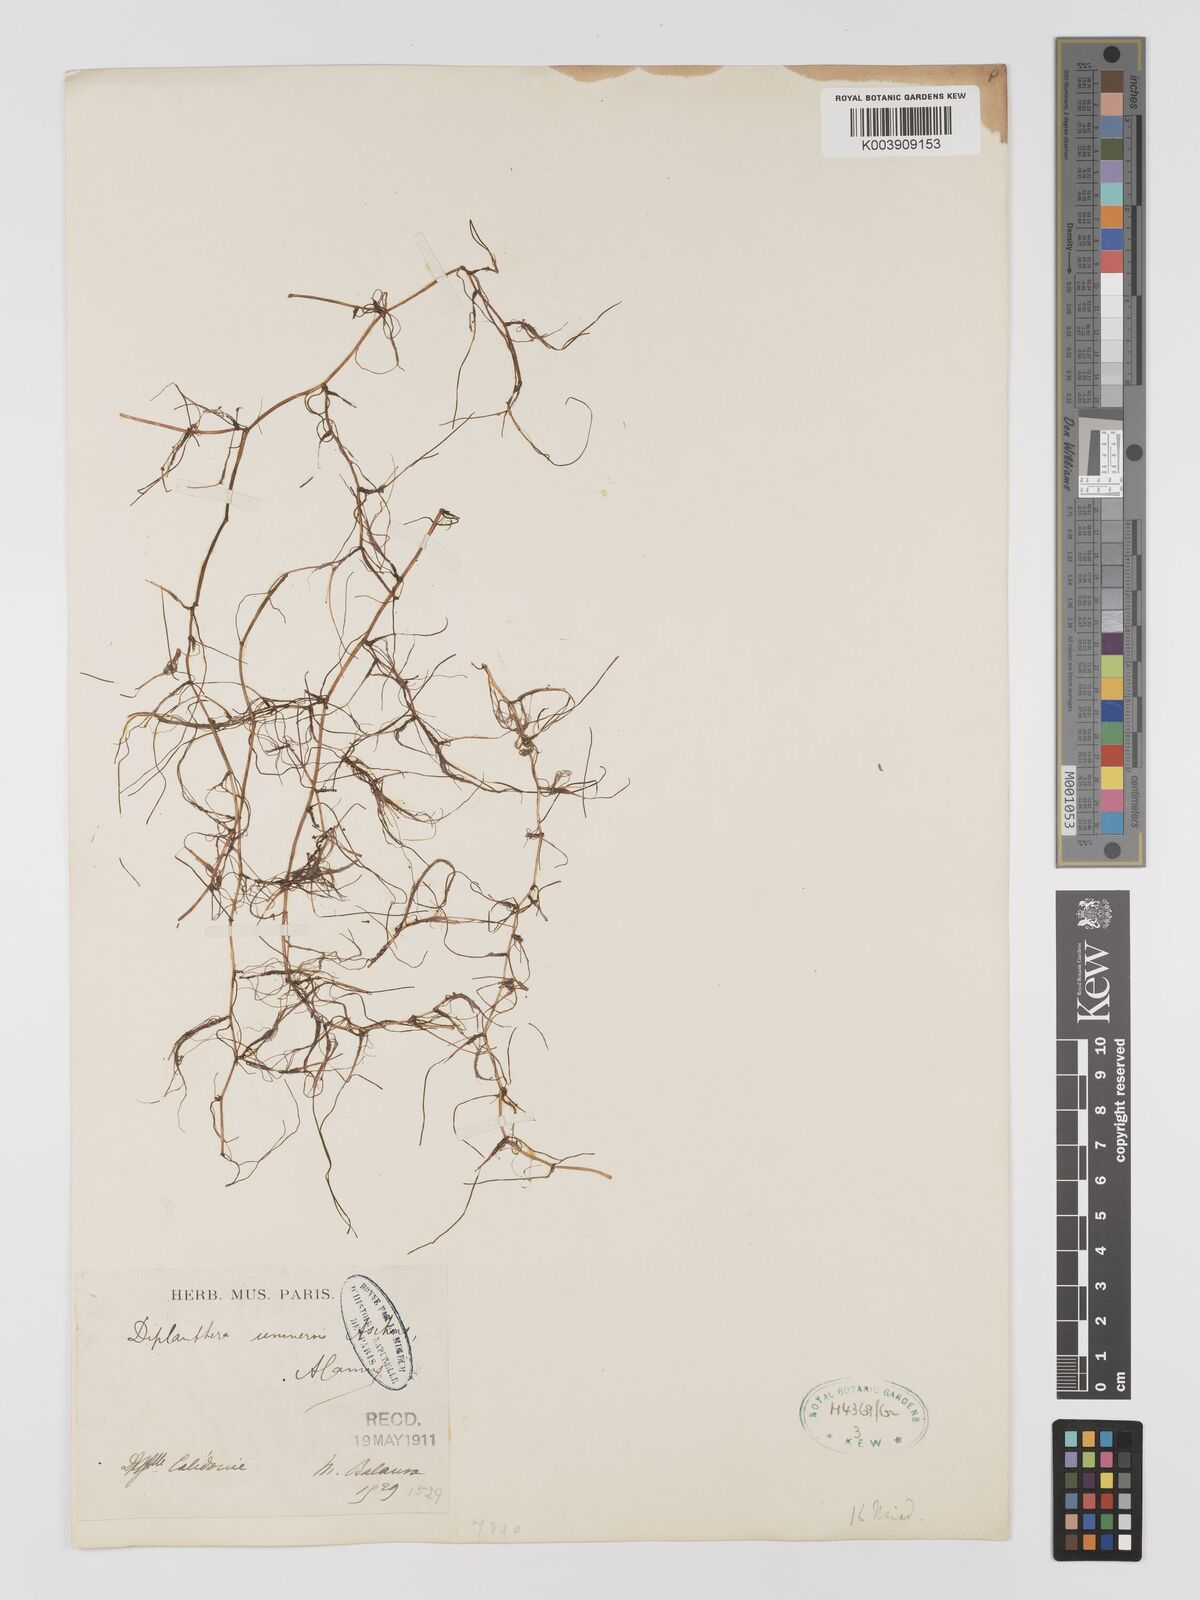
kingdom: Plantae
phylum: Tracheophyta
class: Liliopsida
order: Alismatales
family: Cymodoceaceae
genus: Halodule
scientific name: Halodule uninervis
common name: Narrowleaf seagrass
